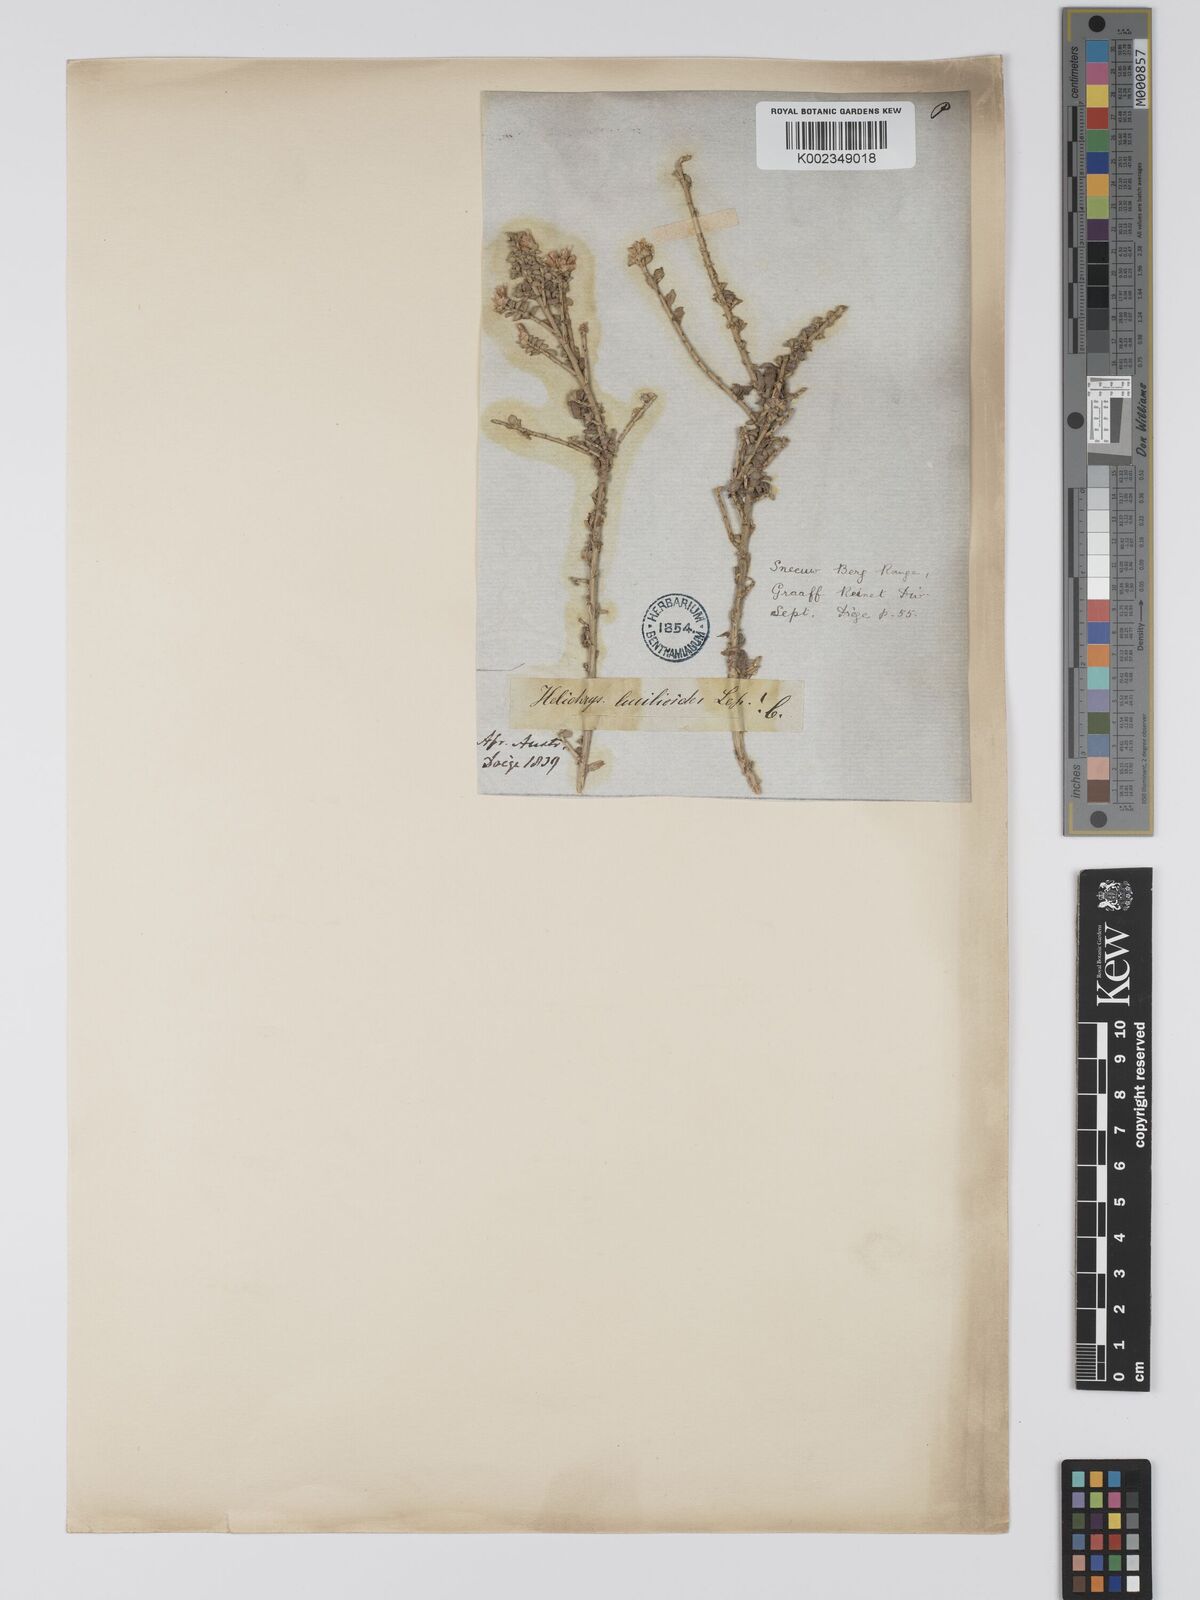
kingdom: Plantae
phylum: Tracheophyta
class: Magnoliopsida
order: Asterales
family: Asteraceae
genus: Helichrysum
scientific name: Helichrysum lucilioides
